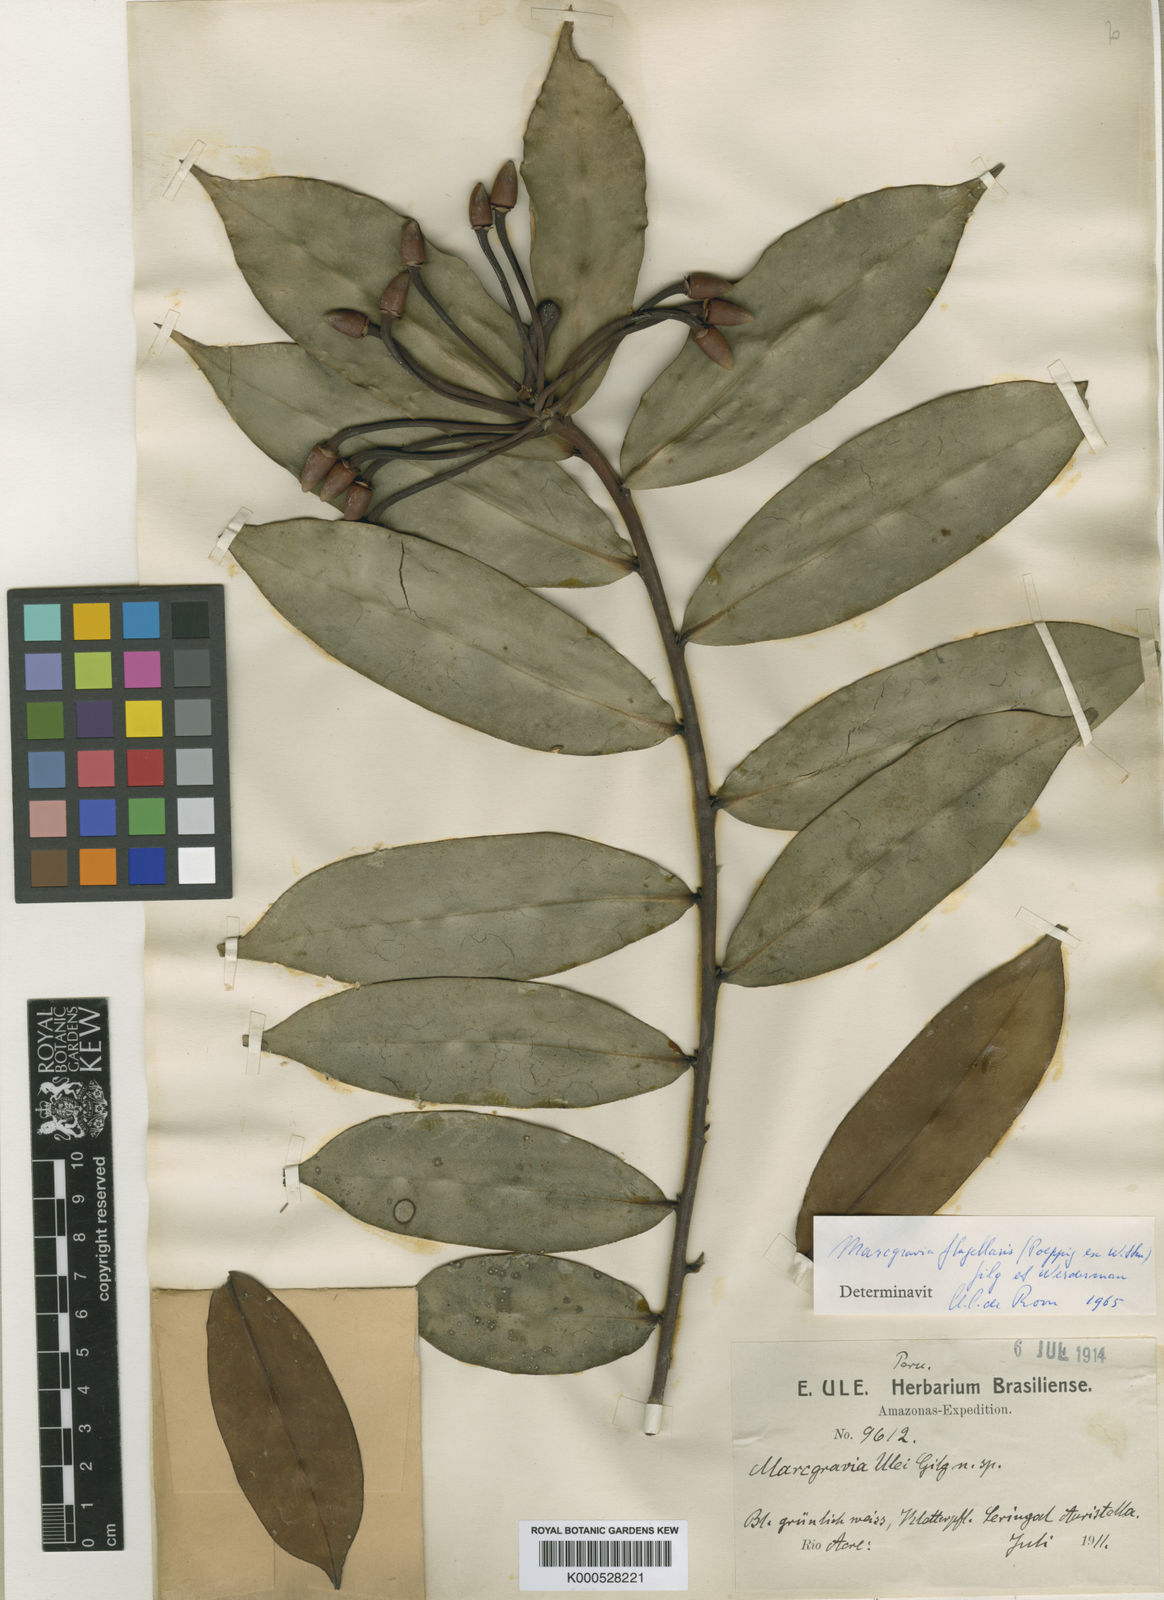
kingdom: Plantae
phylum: Tracheophyta
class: Magnoliopsida
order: Ericales
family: Marcgraviaceae
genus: Marcgravia
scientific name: Marcgravia flagellaris
